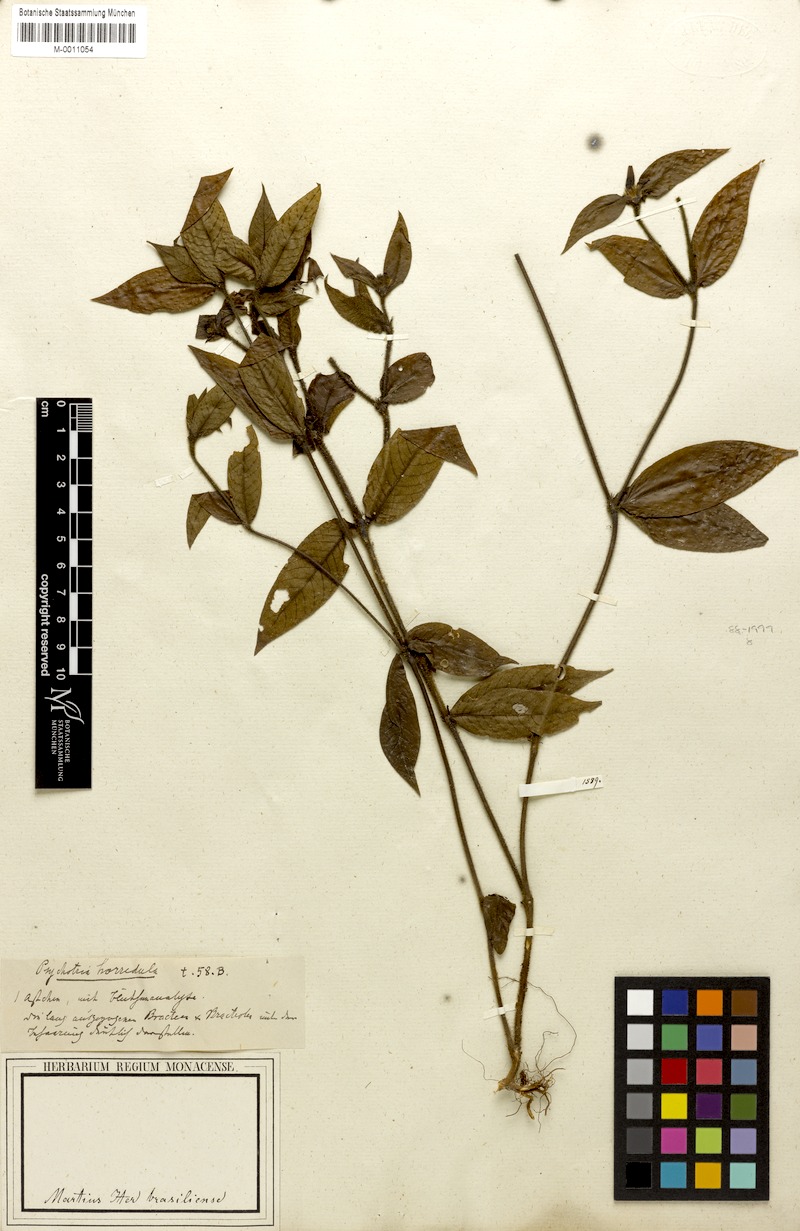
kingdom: Plantae
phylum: Tracheophyta
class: Magnoliopsida
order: Gentianales
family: Rubiaceae
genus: Palicourea
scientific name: Palicourea iodotricha
